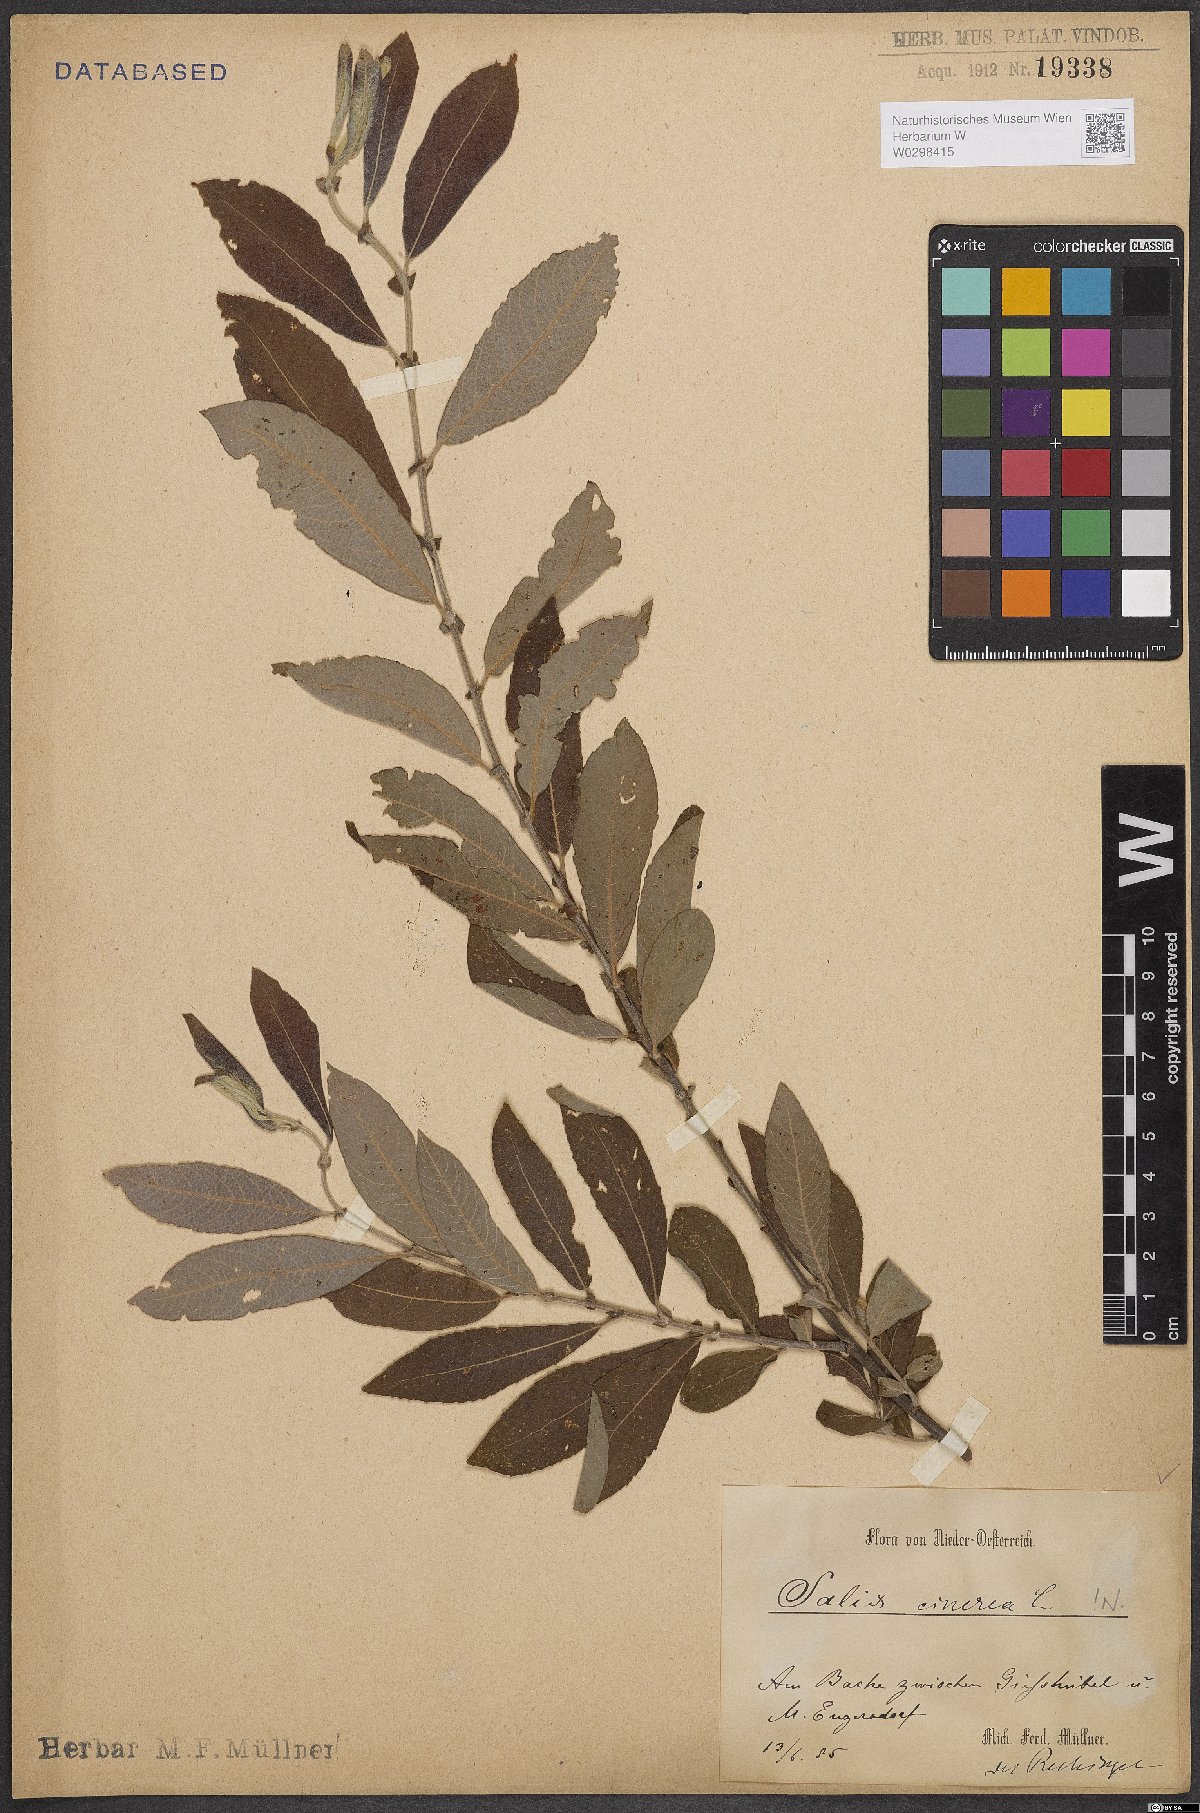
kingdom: Plantae
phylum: Tracheophyta
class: Magnoliopsida
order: Malpighiales
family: Salicaceae
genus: Salix
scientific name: Salix cinerea
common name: Common sallow
